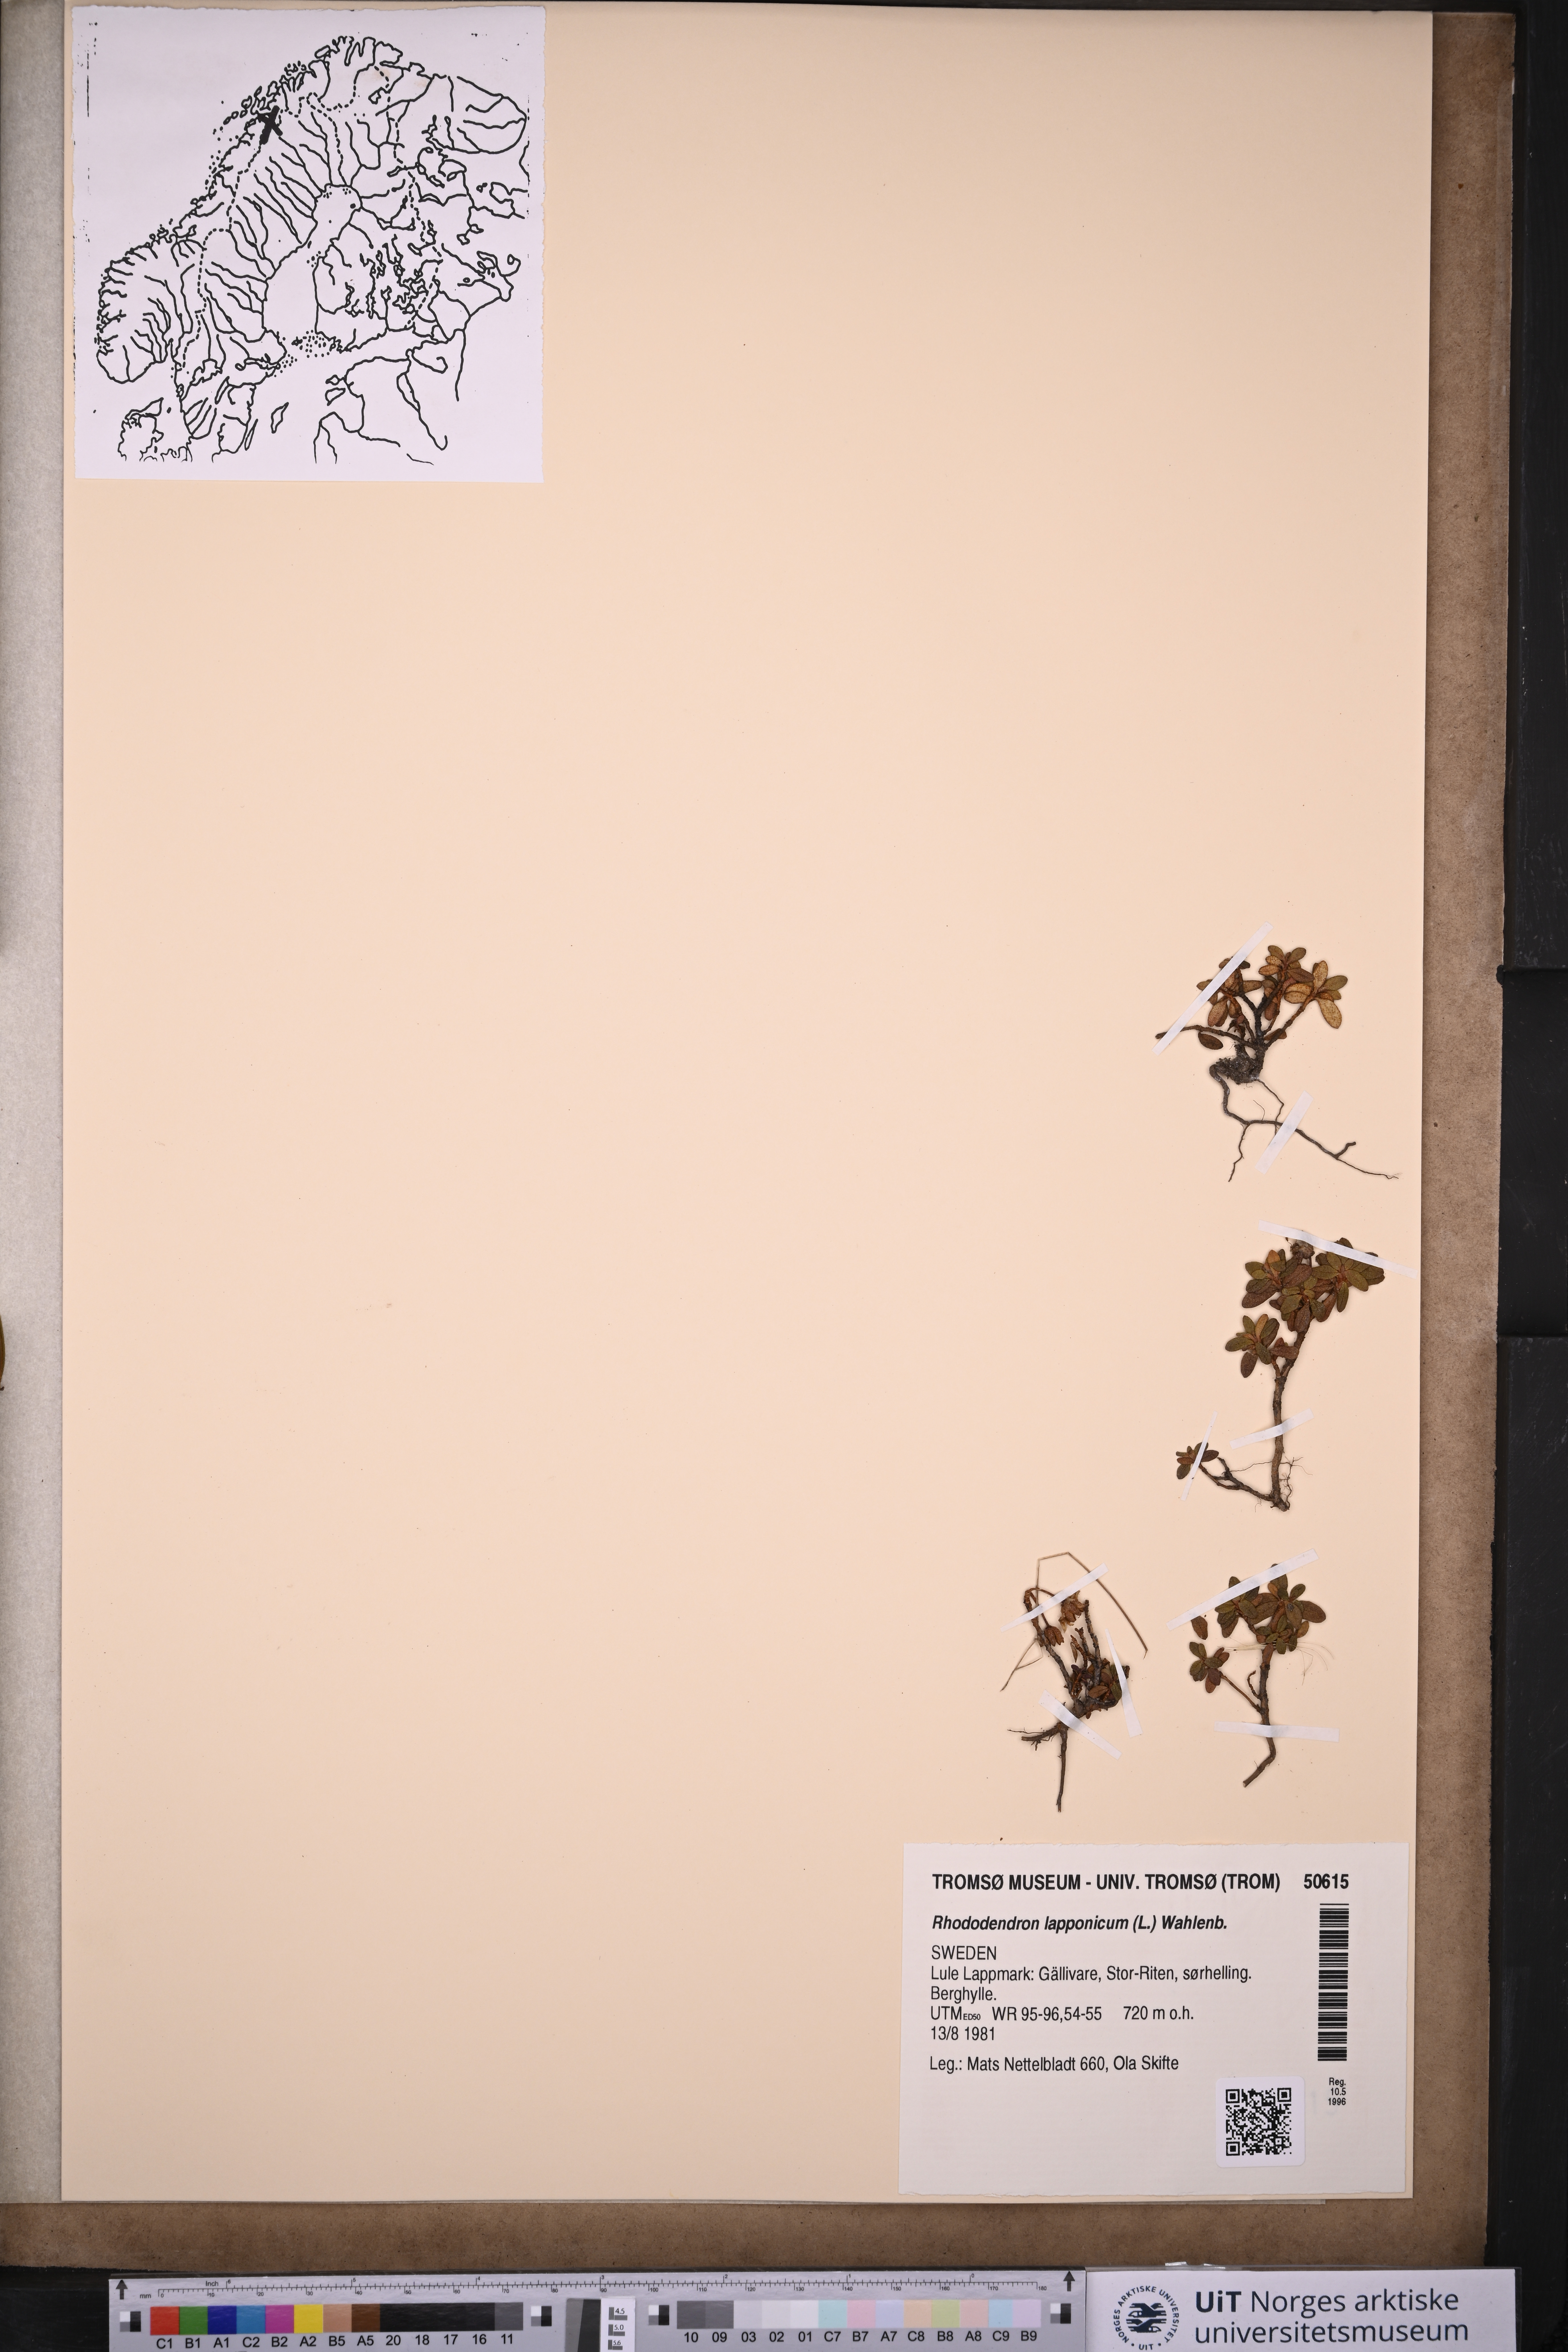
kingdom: Plantae
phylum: Tracheophyta
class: Magnoliopsida
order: Ericales
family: Ericaceae
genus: Rhododendron
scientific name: Rhododendron lapponicum
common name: Lapland rhododendron
